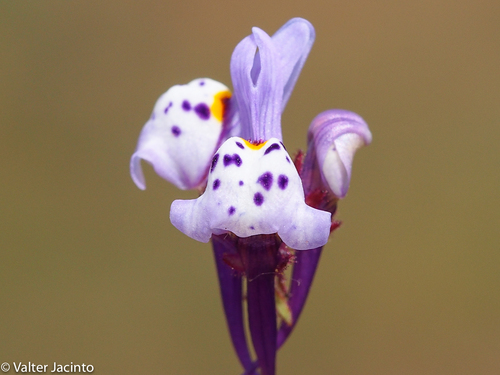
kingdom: Plantae
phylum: Tracheophyta
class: Magnoliopsida
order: Lamiales
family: Plantaginaceae
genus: Linaria
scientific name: Linaria amethystea
